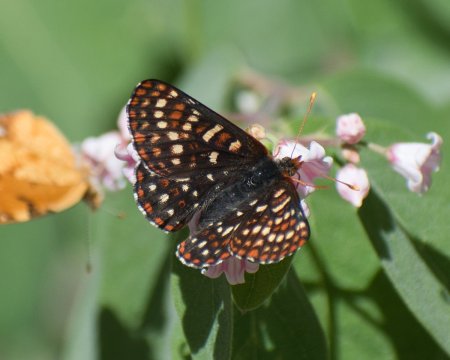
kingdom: Animalia
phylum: Arthropoda
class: Insecta
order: Lepidoptera
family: Nymphalidae
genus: Occidryas
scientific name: Occidryas anicia
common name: Anicia Checkerspot
